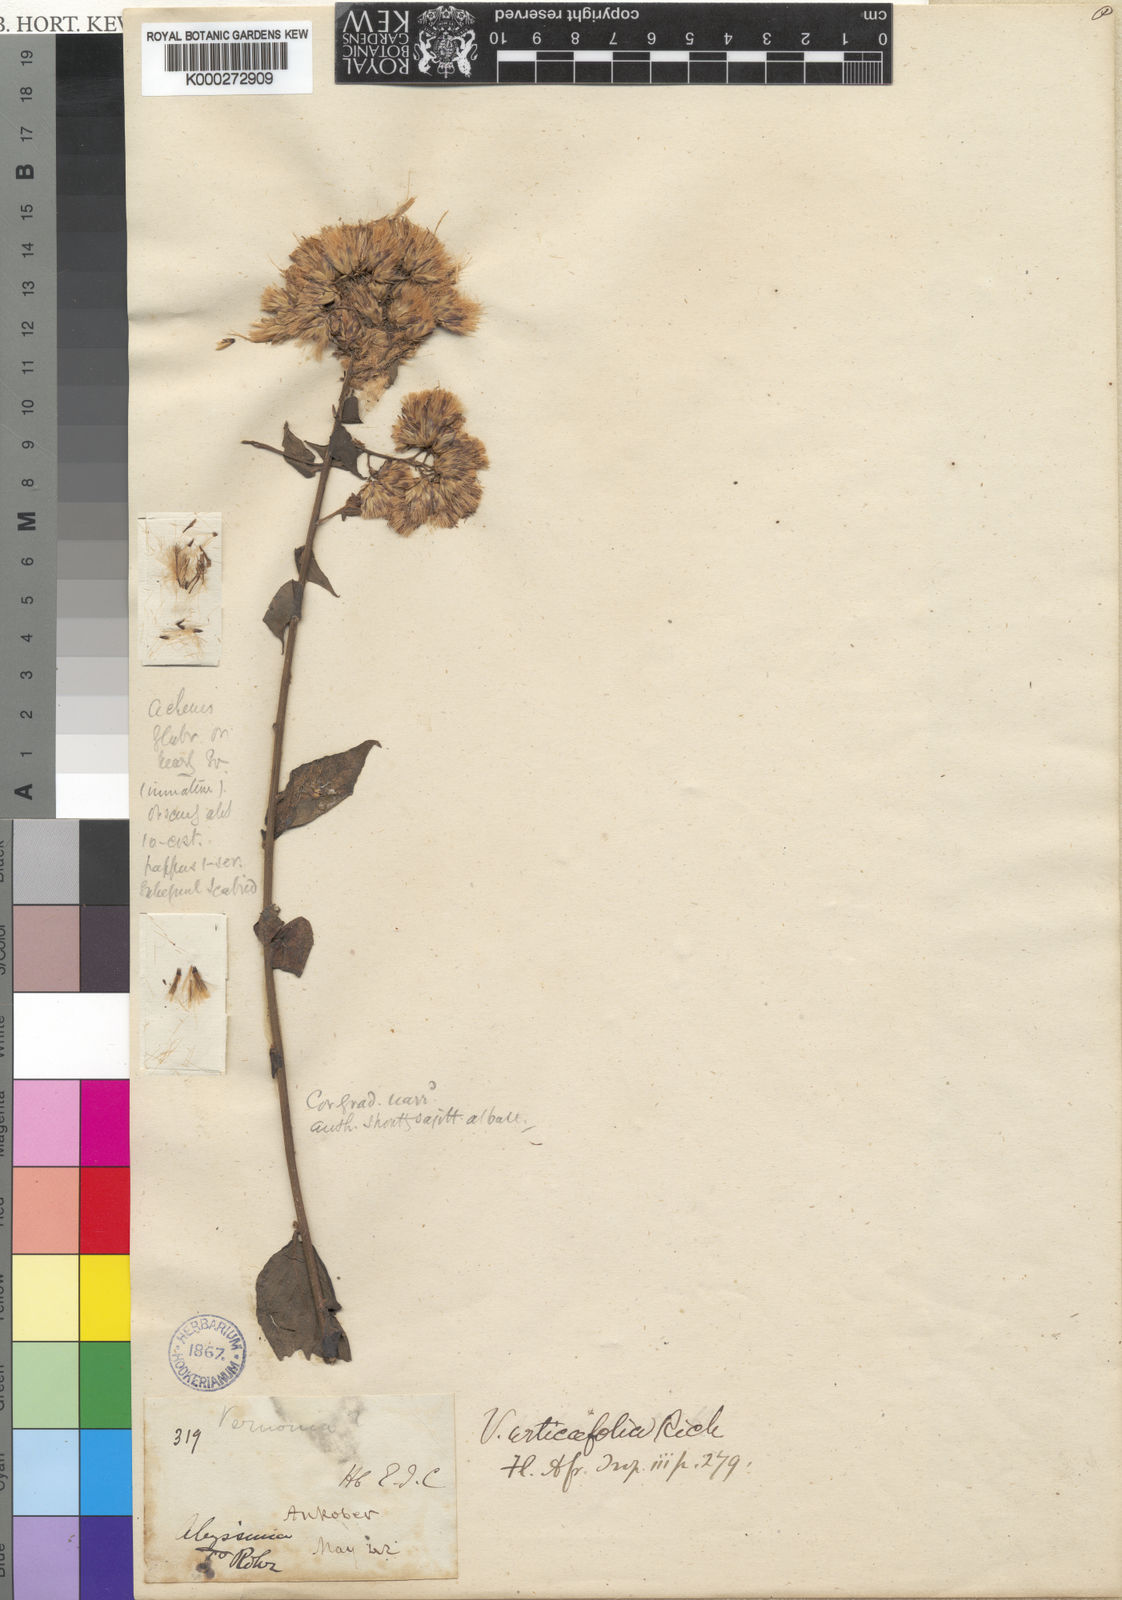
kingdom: Plantae
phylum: Tracheophyta
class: Magnoliopsida
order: Asterales
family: Asteraceae
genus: Gymnanthemum
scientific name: Gymnanthemum urticifolium
